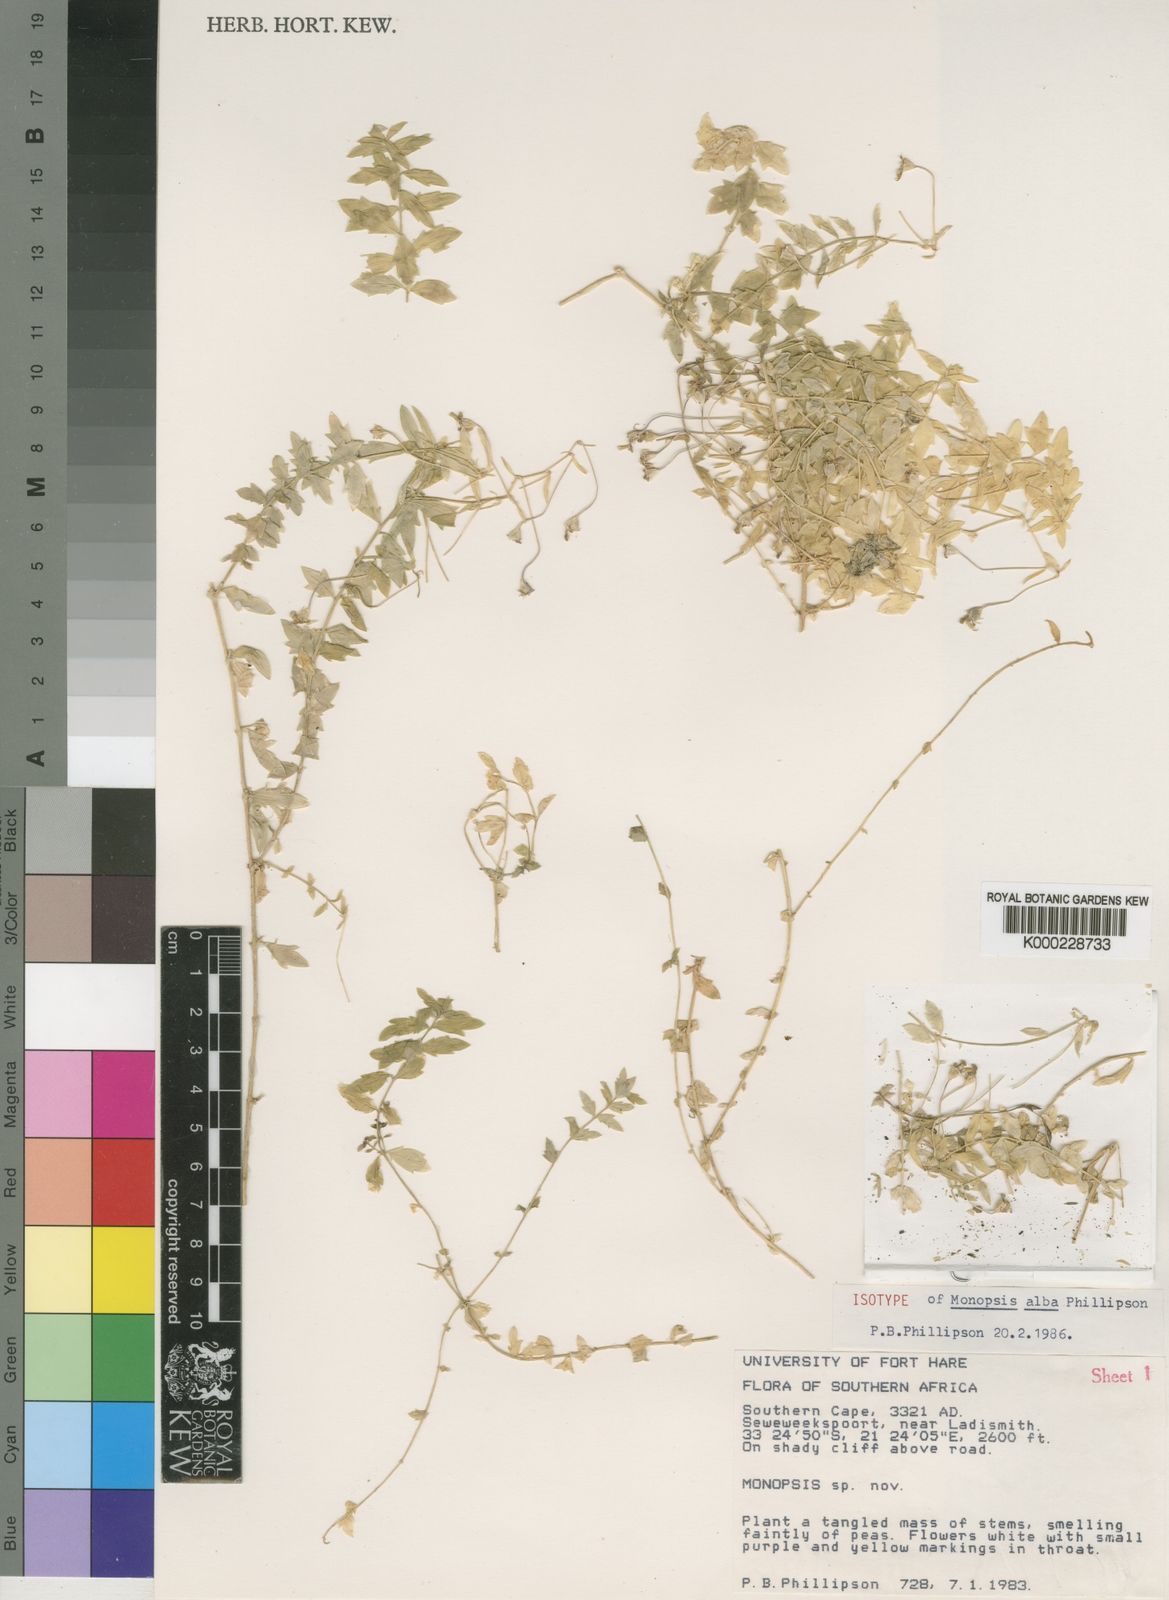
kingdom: Plantae
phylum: Tracheophyta
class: Magnoliopsida
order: Asterales
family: Campanulaceae
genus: Monopsis
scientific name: Monopsis alba
